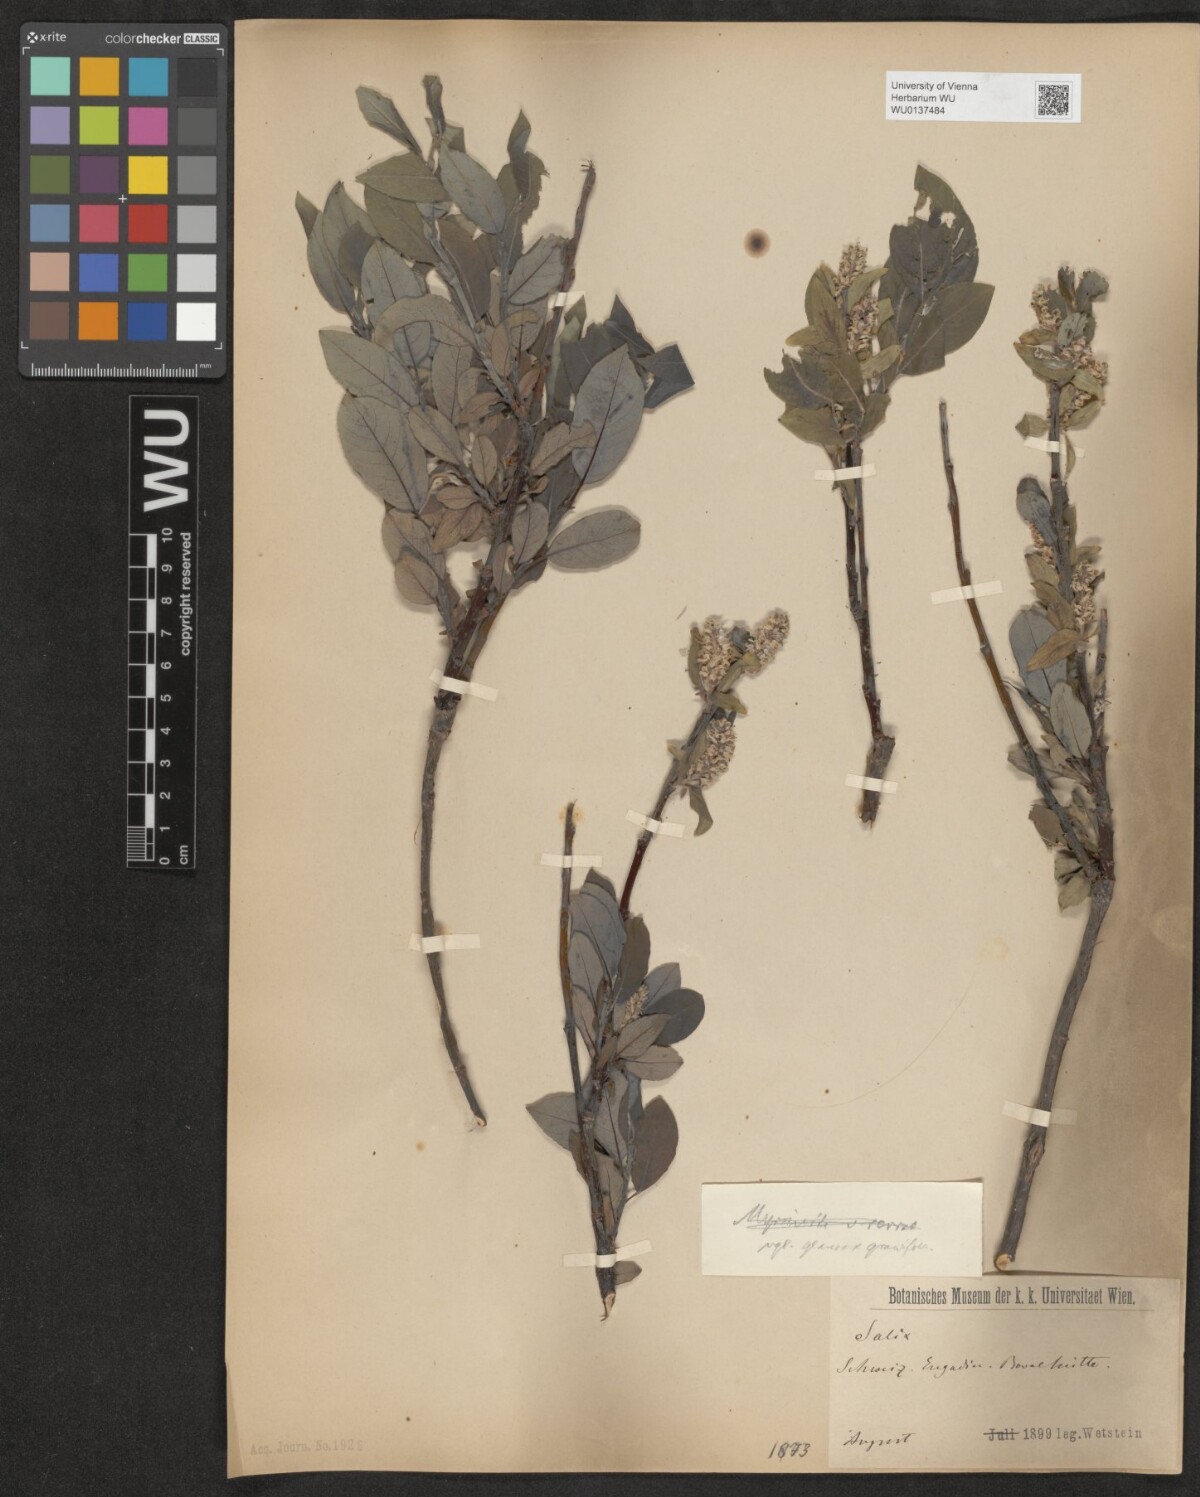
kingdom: Plantae
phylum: Tracheophyta
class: Magnoliopsida
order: Malpighiales
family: Salicaceae
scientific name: Salicaceae
